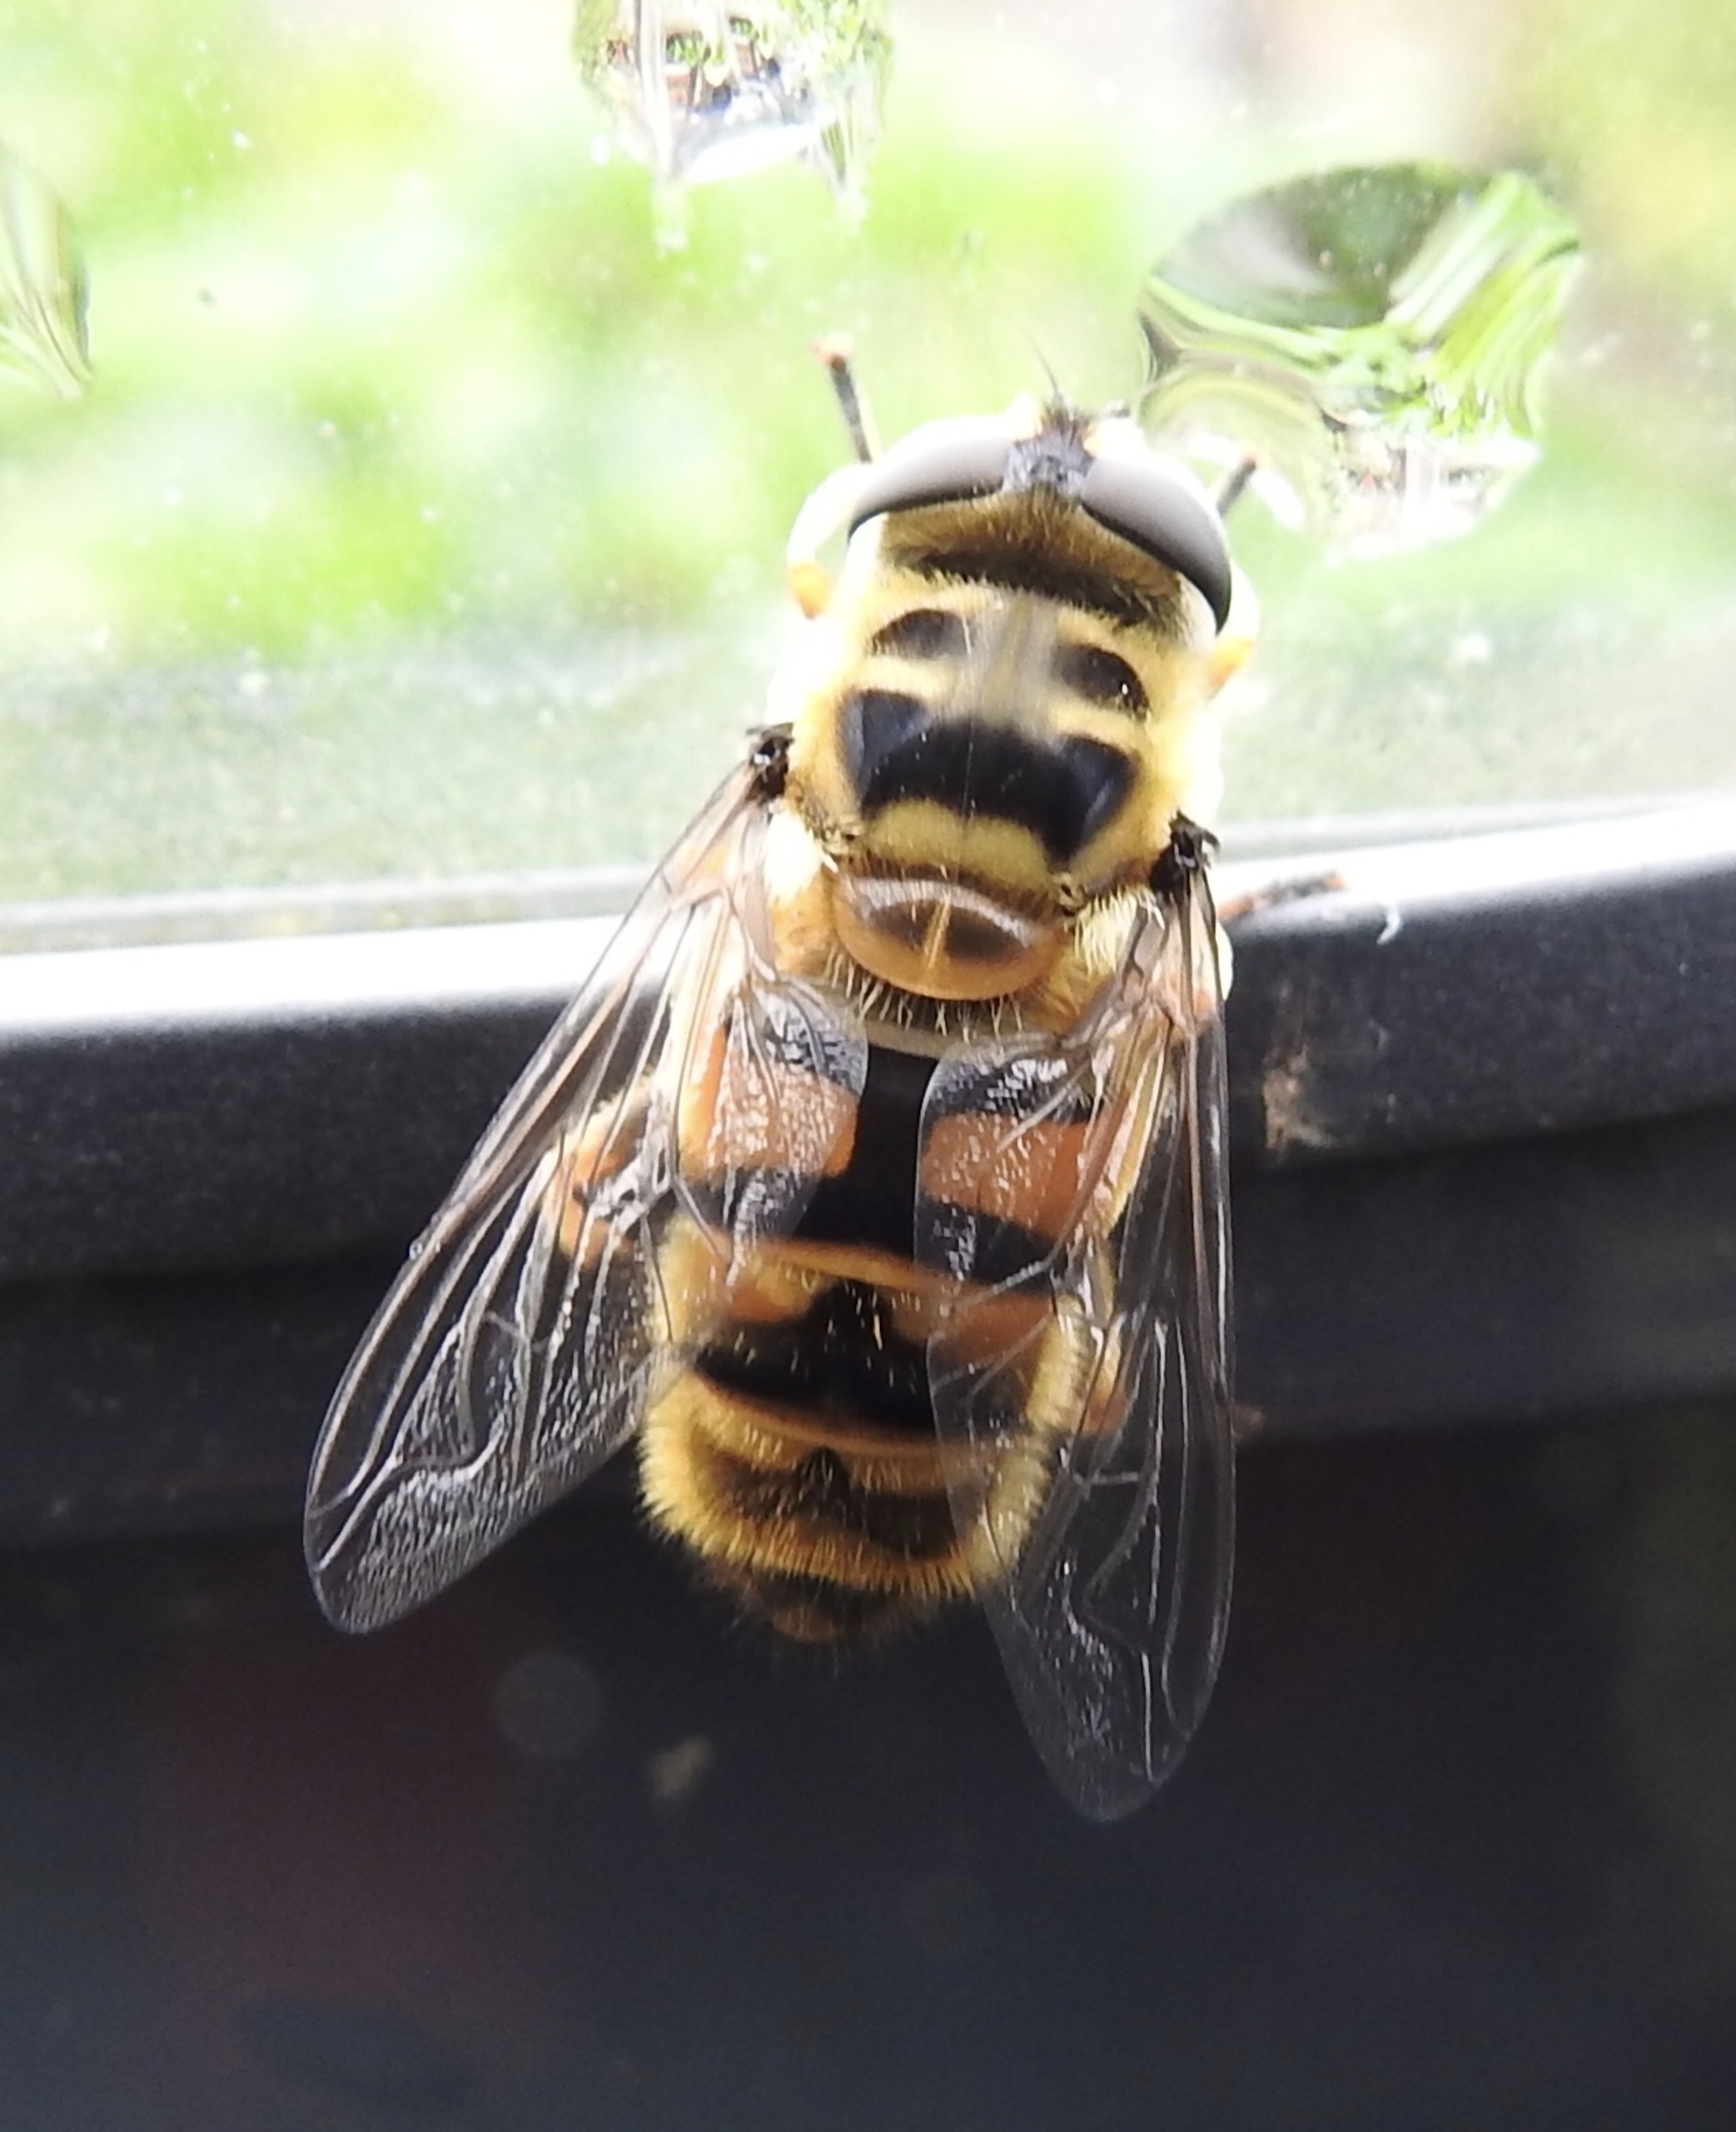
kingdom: Animalia
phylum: Arthropoda
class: Insecta
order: Diptera
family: Syrphidae
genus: Myathropa
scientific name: Myathropa florea
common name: Dødningehoved-svirreflue
